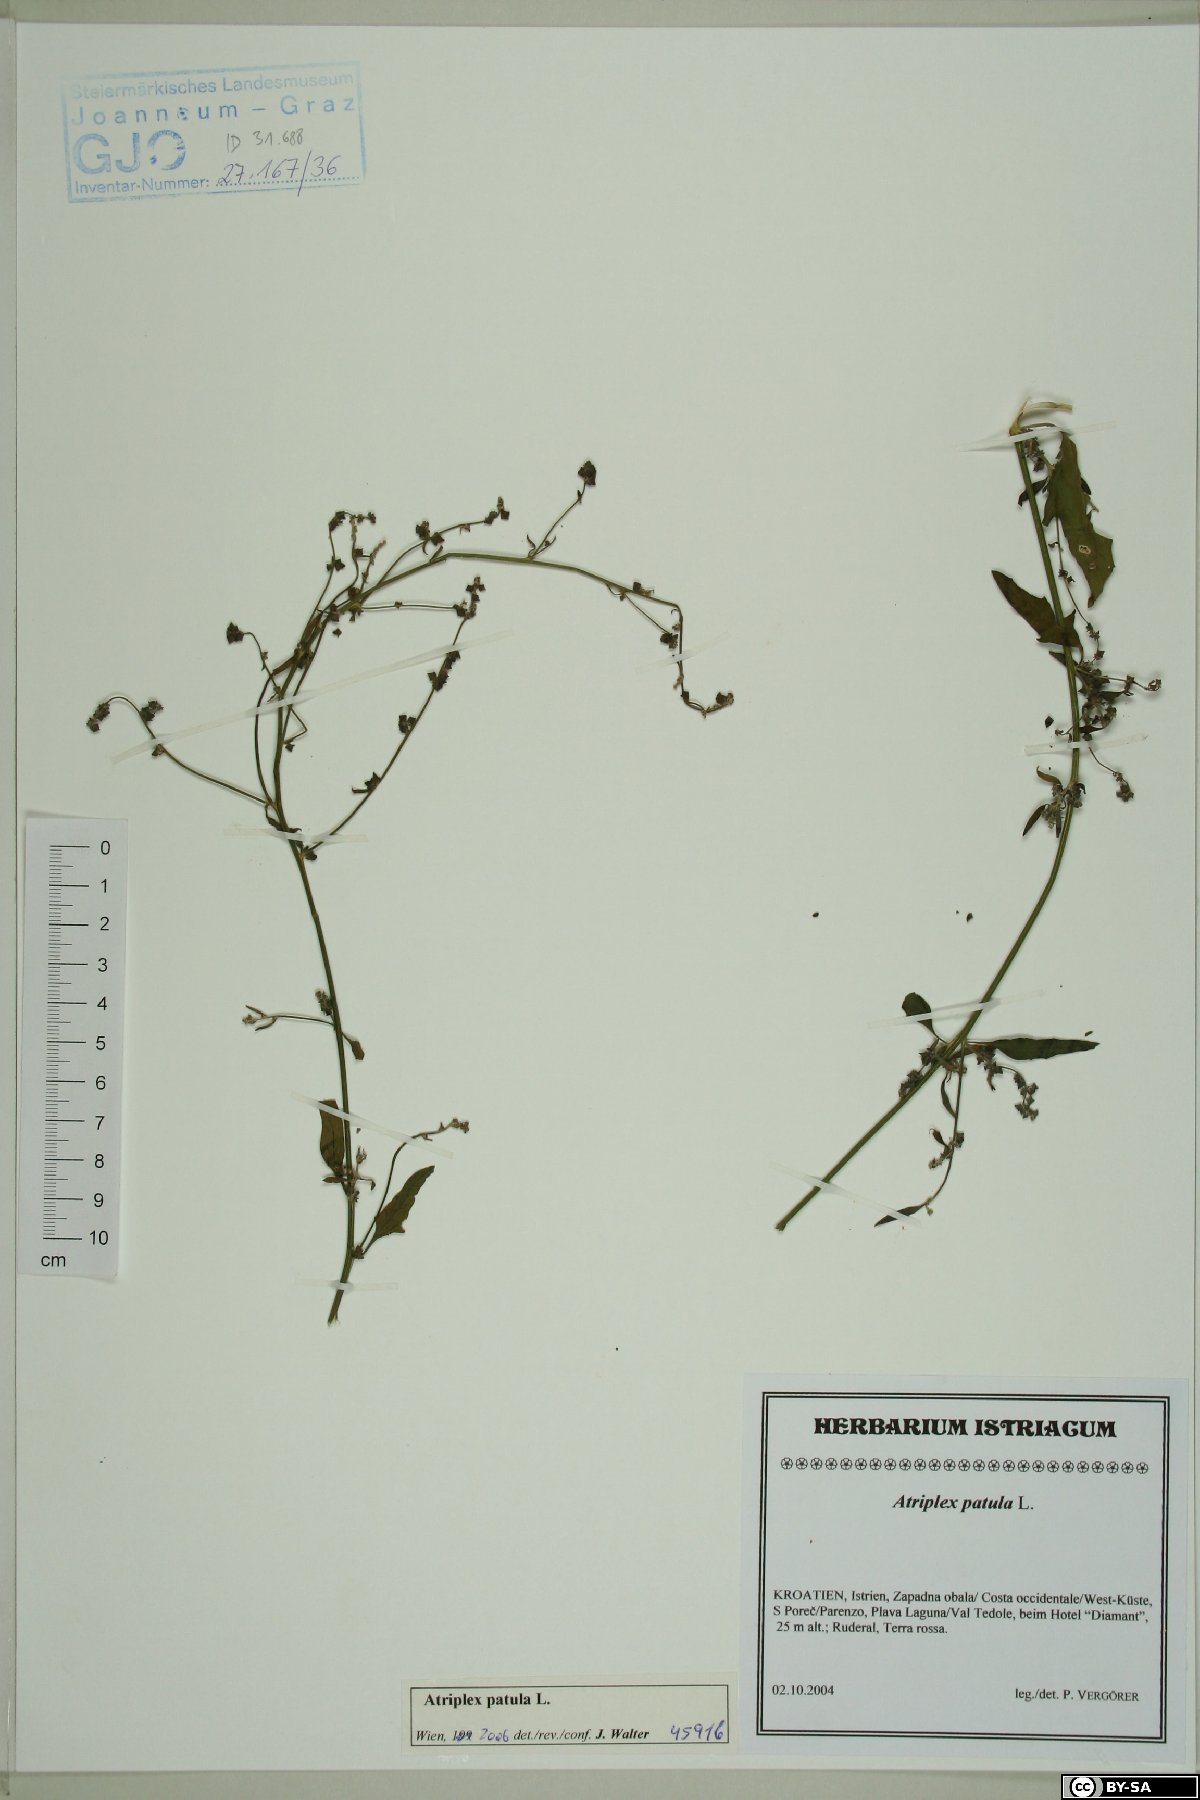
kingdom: Plantae
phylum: Tracheophyta
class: Magnoliopsida
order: Caryophyllales
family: Amaranthaceae
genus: Atriplex
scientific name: Atriplex patula
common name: Common orache
